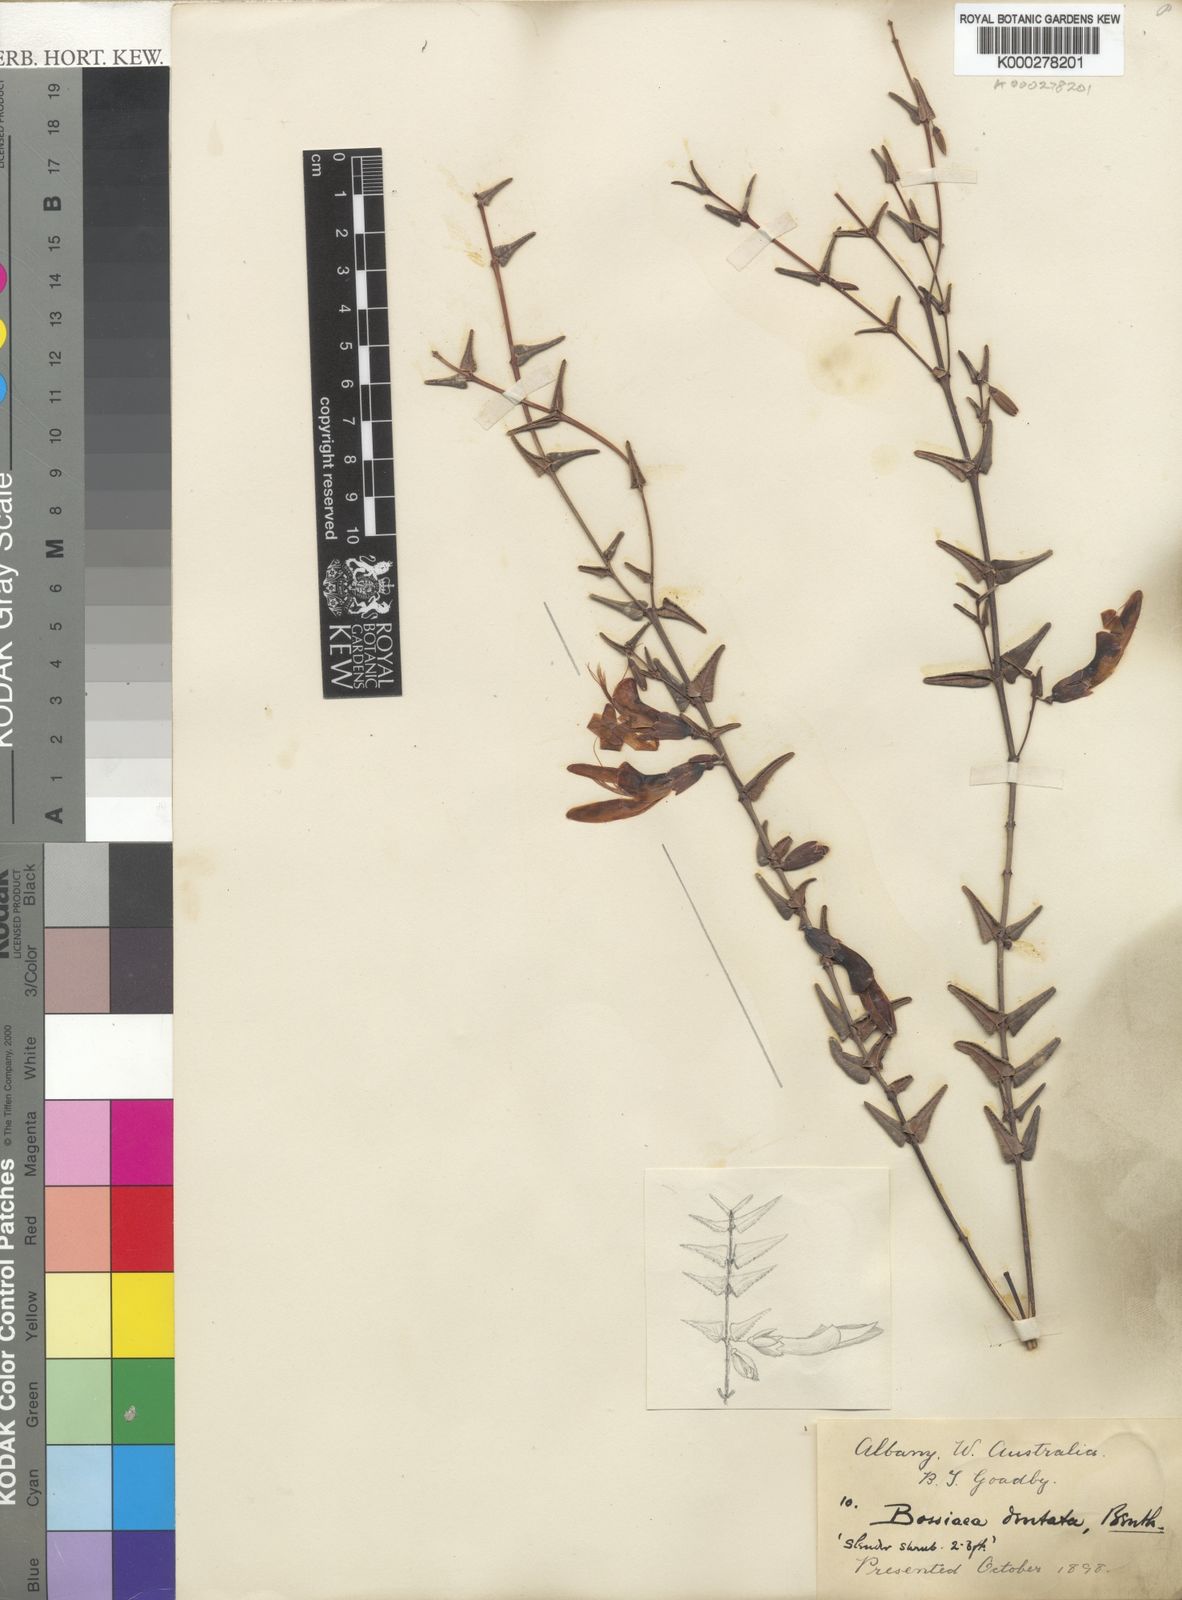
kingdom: Plantae
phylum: Tracheophyta
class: Magnoliopsida
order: Fabales
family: Fabaceae
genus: Bossiaea
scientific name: Bossiaea dentata
